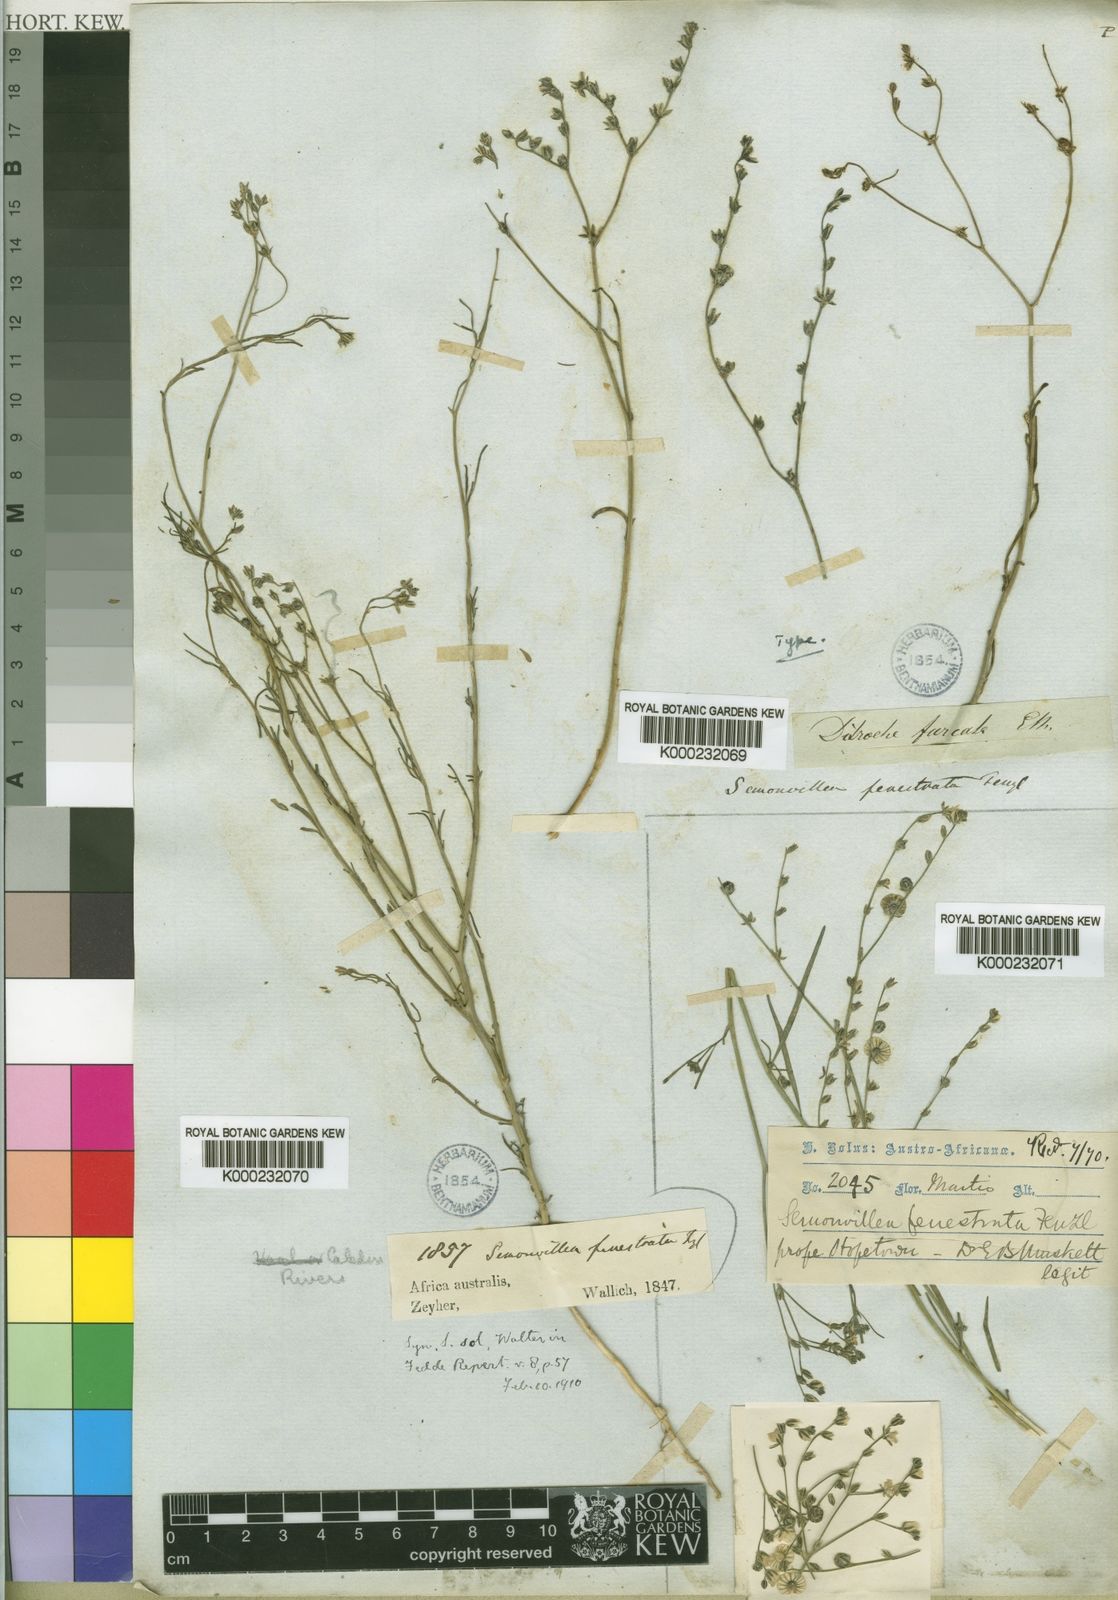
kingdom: Plantae
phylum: Tracheophyta
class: Magnoliopsida
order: Caryophyllales
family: Limeaceae
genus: Limeum
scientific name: Limeum fenestratum
